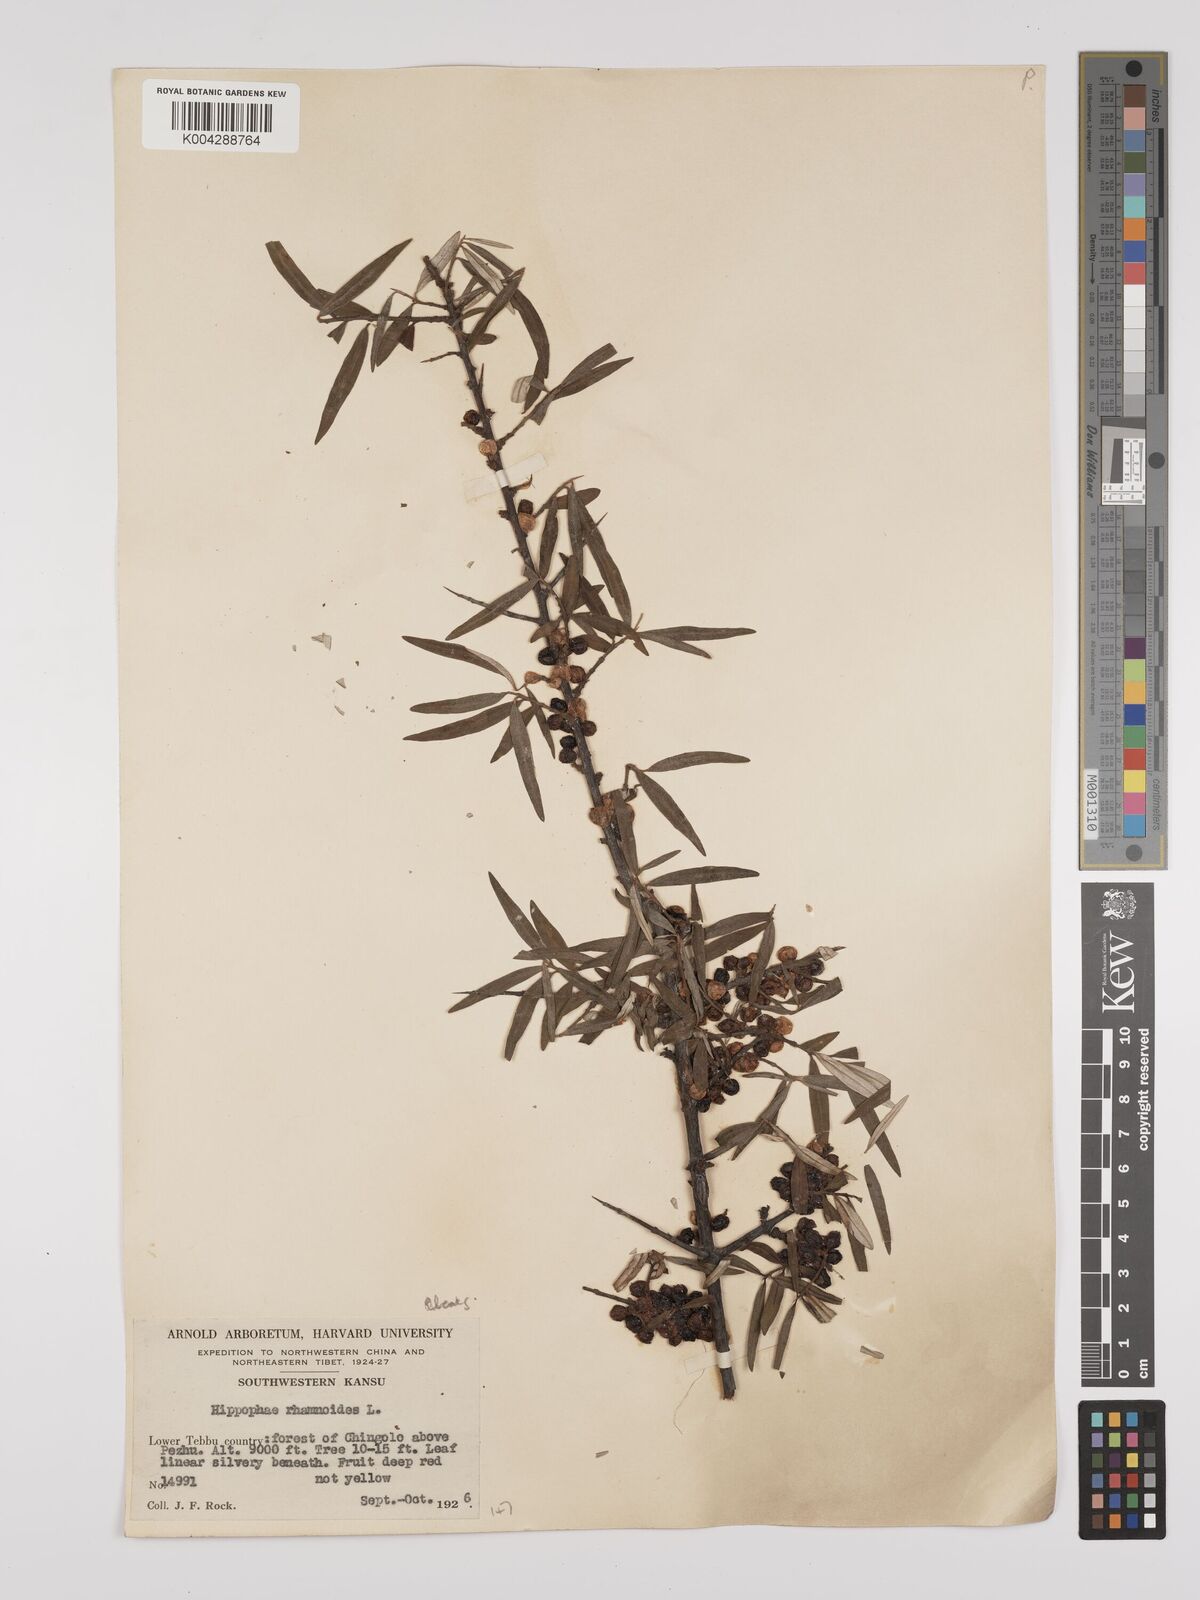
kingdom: Plantae
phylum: Tracheophyta
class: Magnoliopsida
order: Rosales
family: Elaeagnaceae
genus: Hippophae
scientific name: Hippophae rhamnoides
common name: Sea-buckthorn
